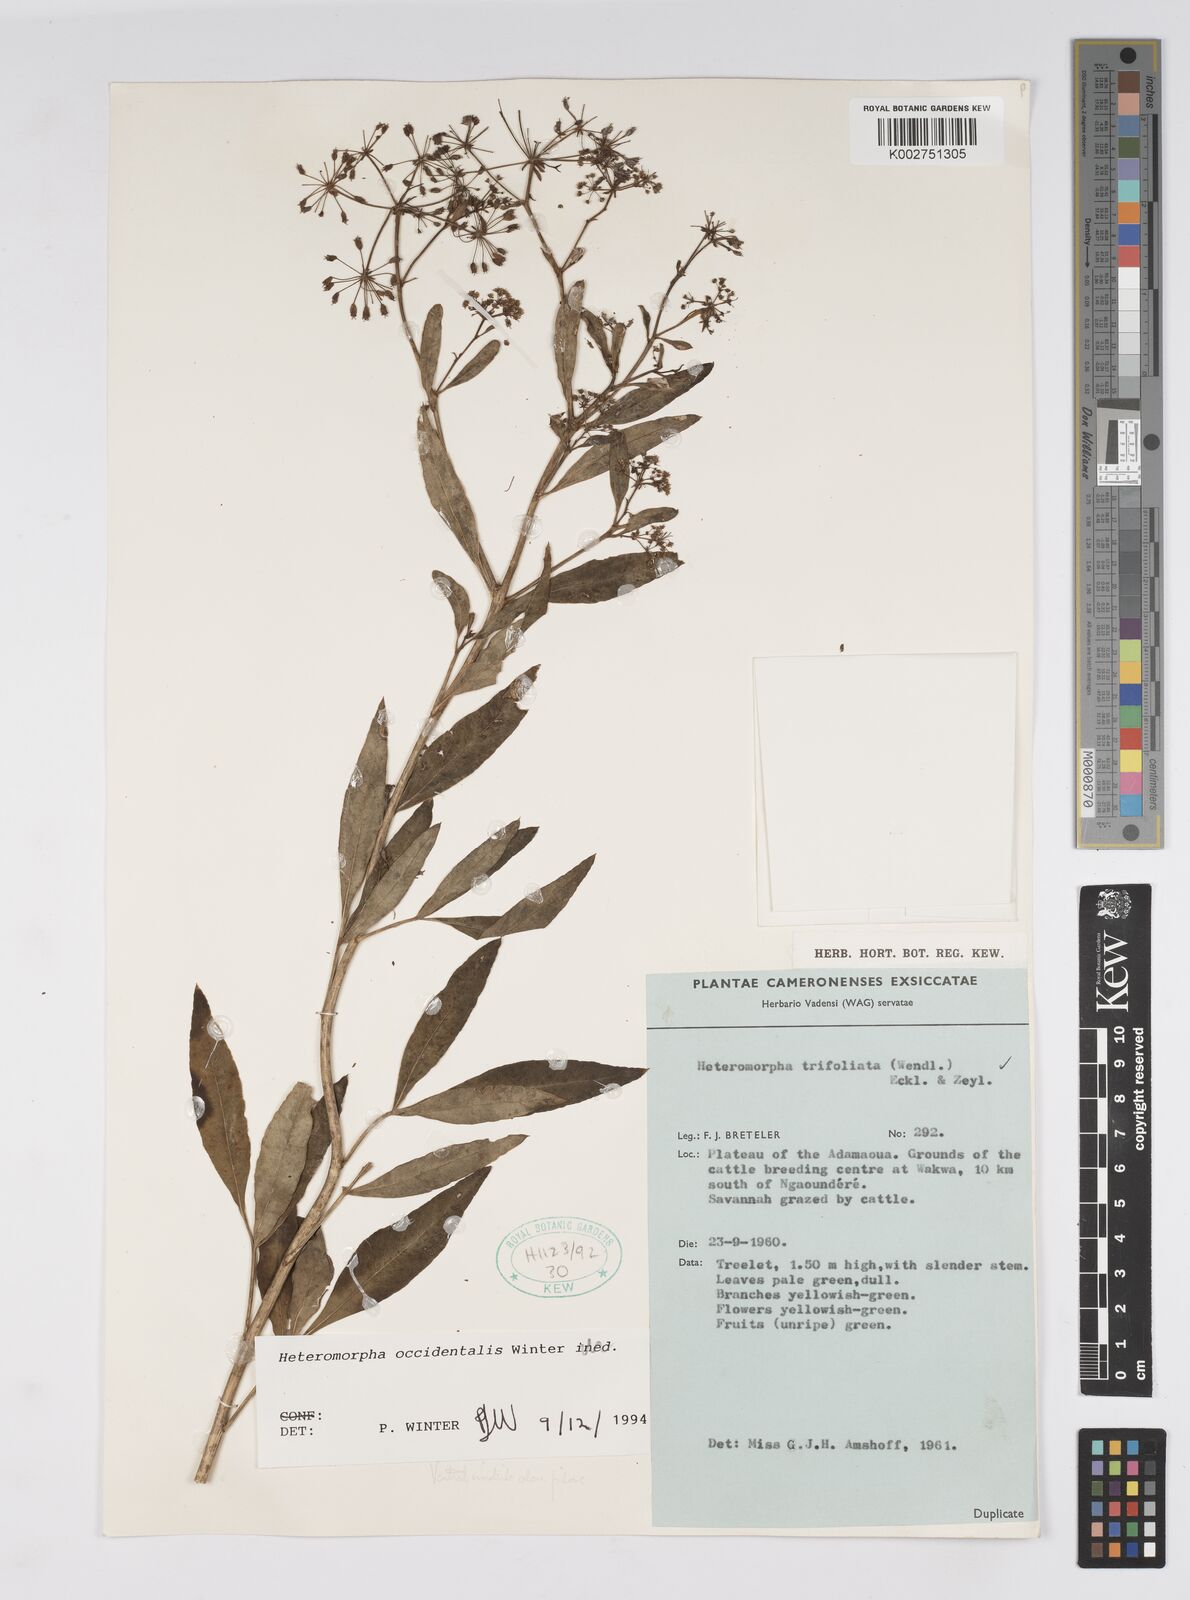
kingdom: Plantae
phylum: Tracheophyta
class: Magnoliopsida
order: Apiales
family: Apiaceae
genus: Heteromorpha
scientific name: Heteromorpha occidentalis
